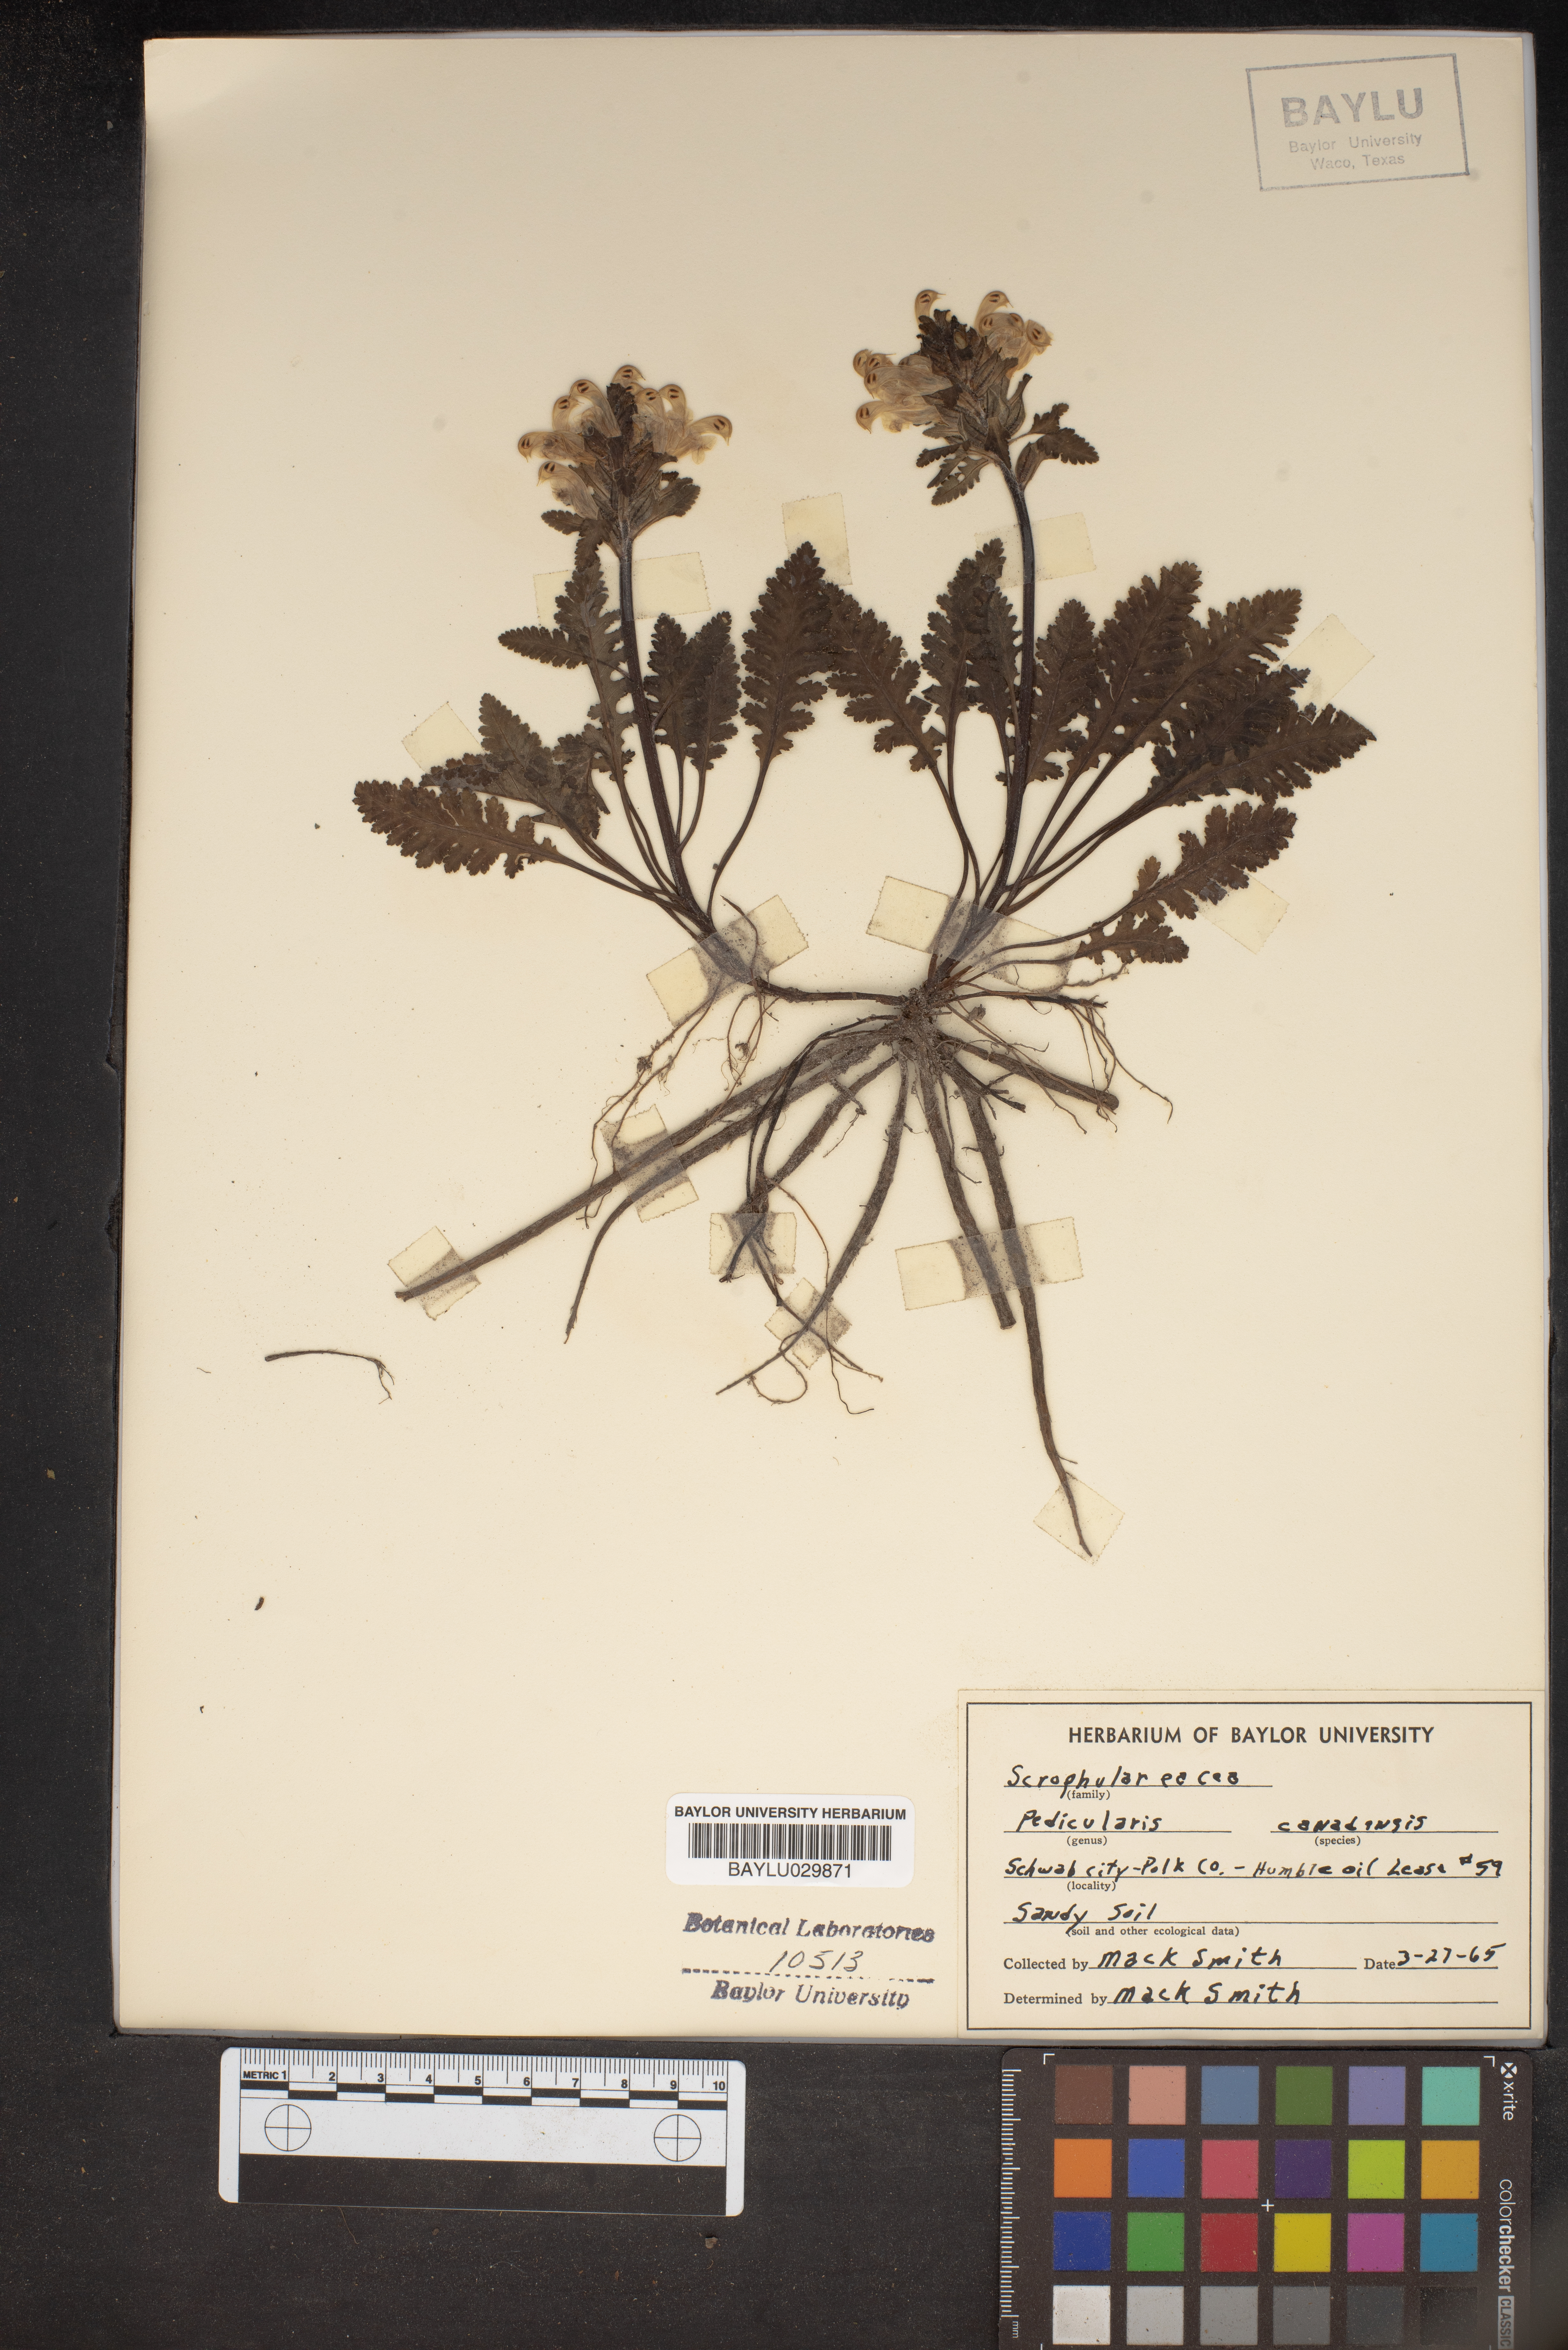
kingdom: Plantae
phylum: Tracheophyta
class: Magnoliopsida
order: Lamiales
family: Orobanchaceae
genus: Pedicularis
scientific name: Pedicularis canadensis
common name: Early lousewort
